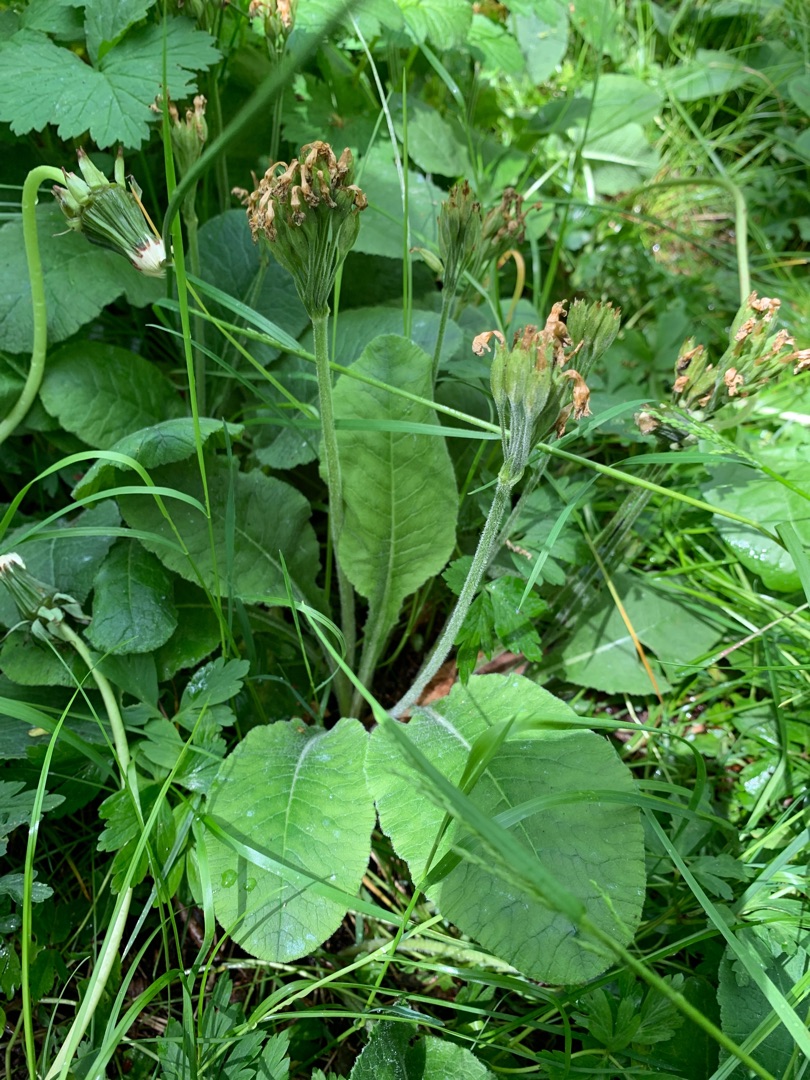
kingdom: Plantae
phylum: Tracheophyta
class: Magnoliopsida
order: Ericales
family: Primulaceae
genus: Primula
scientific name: Primula elatior
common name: Fladkravet kodriver
